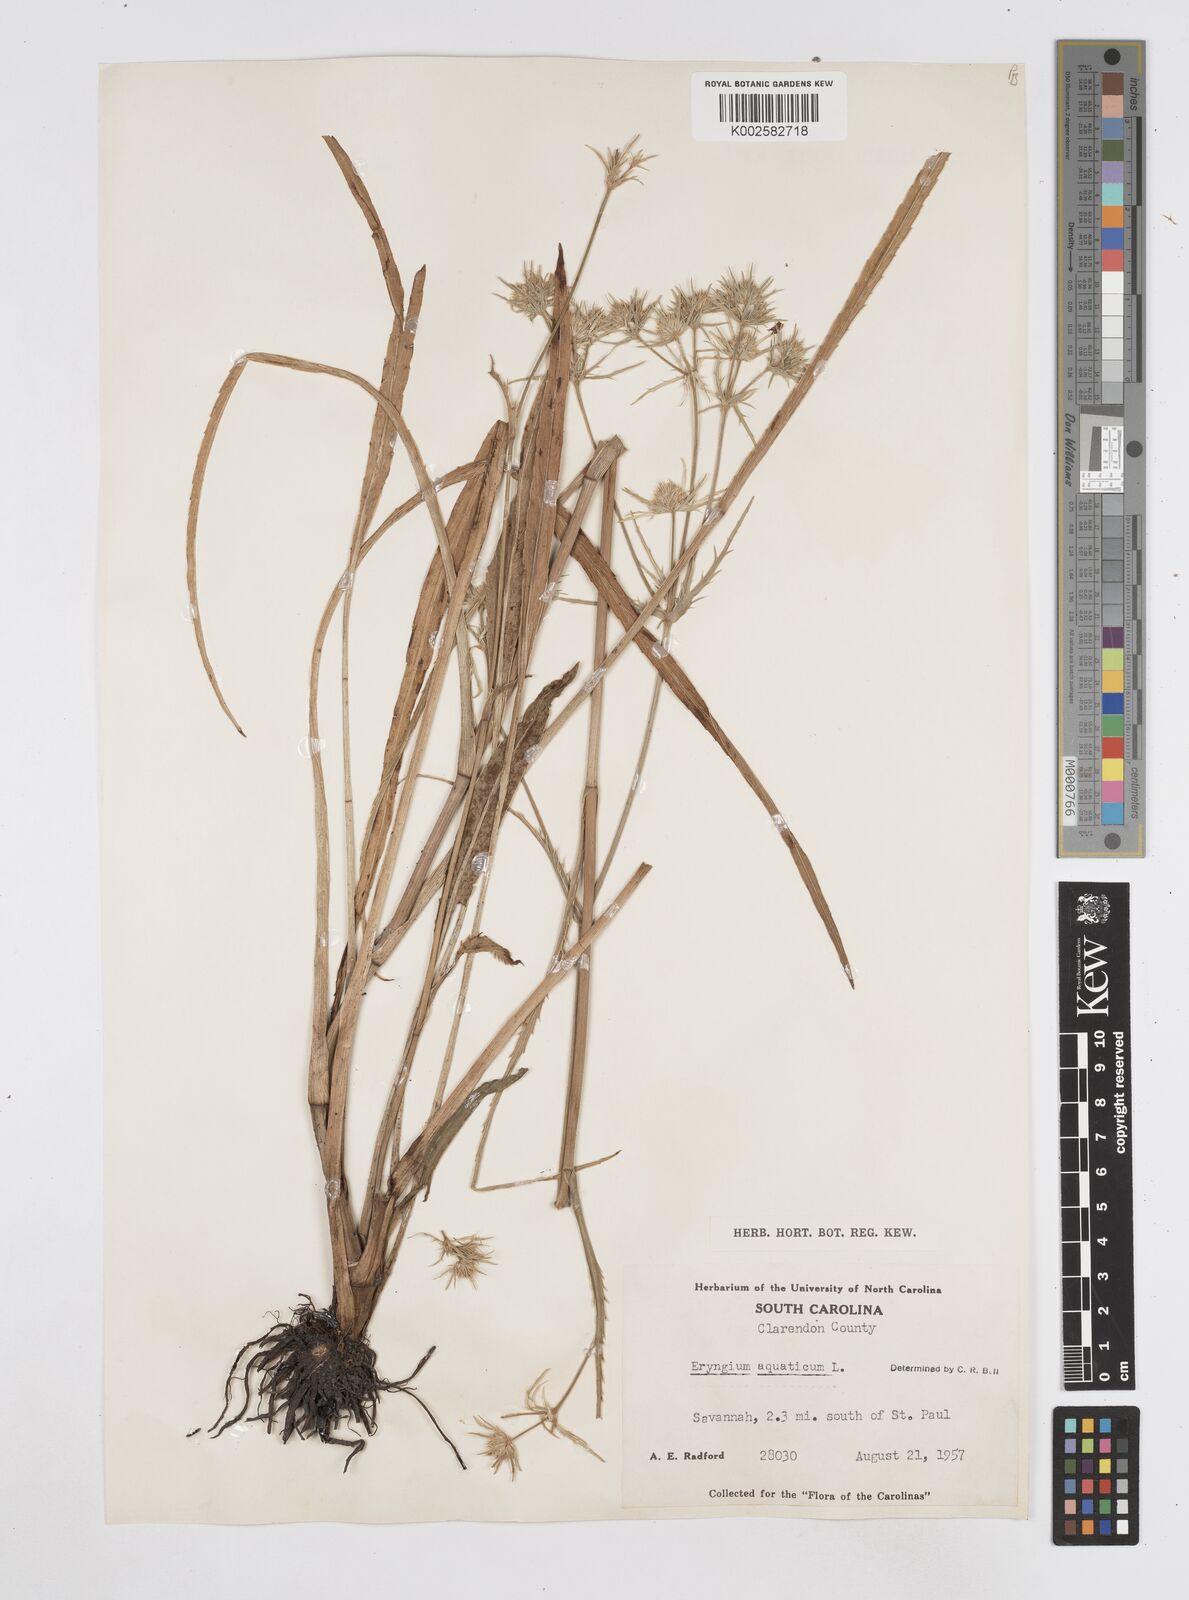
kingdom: Plantae
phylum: Tracheophyta
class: Magnoliopsida
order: Apiales
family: Apiaceae
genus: Eryngium
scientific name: Eryngium aquaticum
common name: Water eryngo
